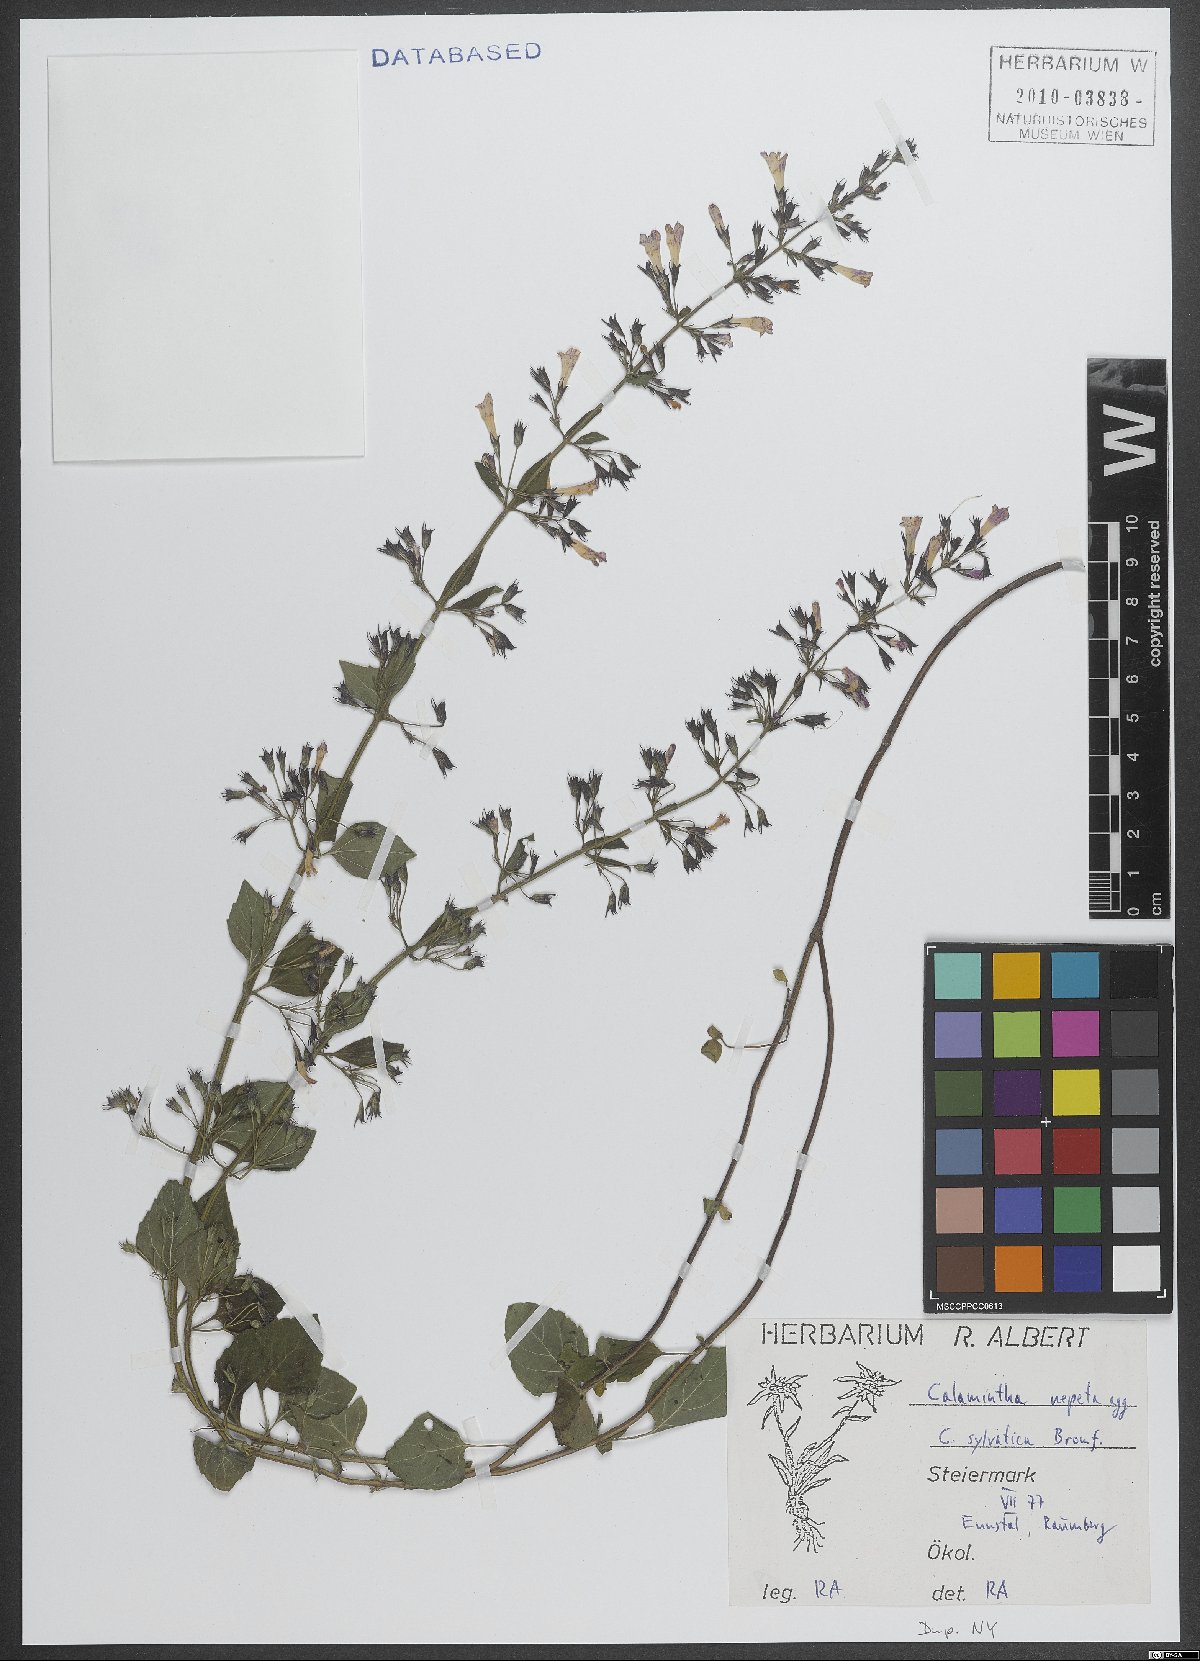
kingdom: Plantae
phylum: Tracheophyta
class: Magnoliopsida
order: Lamiales
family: Lamiaceae
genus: Clinopodium
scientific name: Clinopodium nepeta
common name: Lesser calamint
